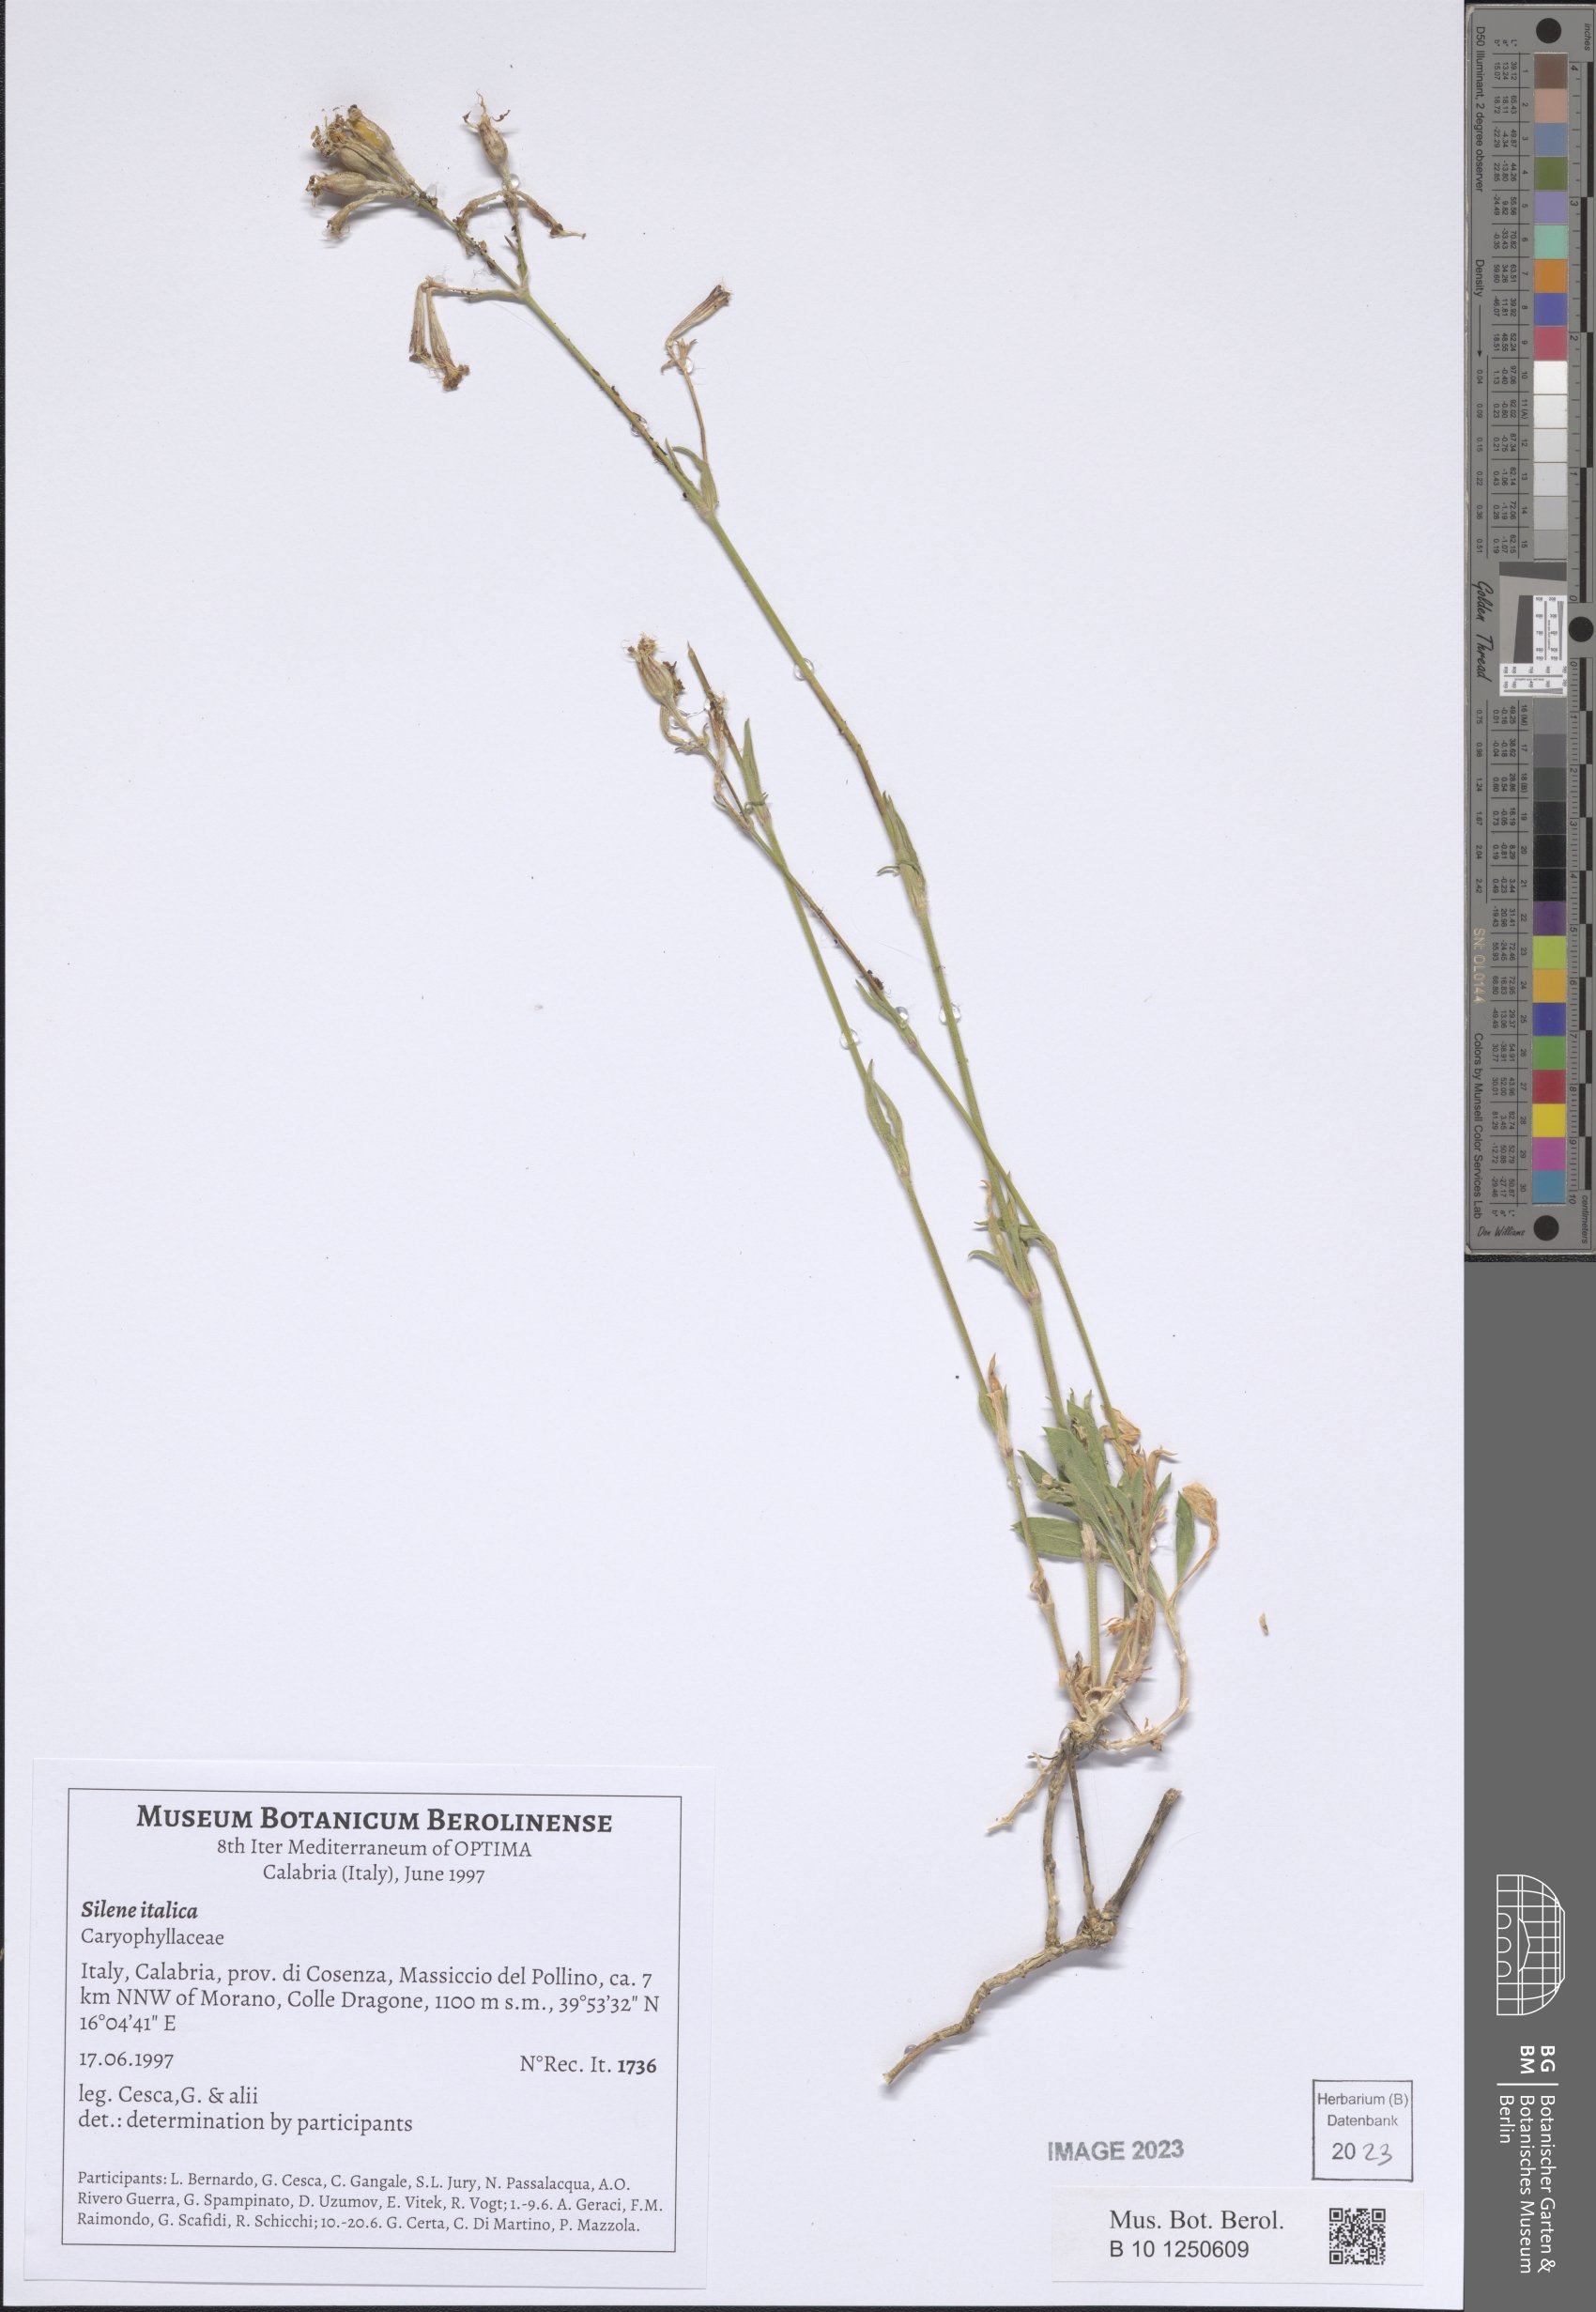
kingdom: Plantae
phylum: Tracheophyta
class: Magnoliopsida
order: Caryophyllales
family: Caryophyllaceae
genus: Silene
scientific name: Silene italica
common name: Italian catchfly
